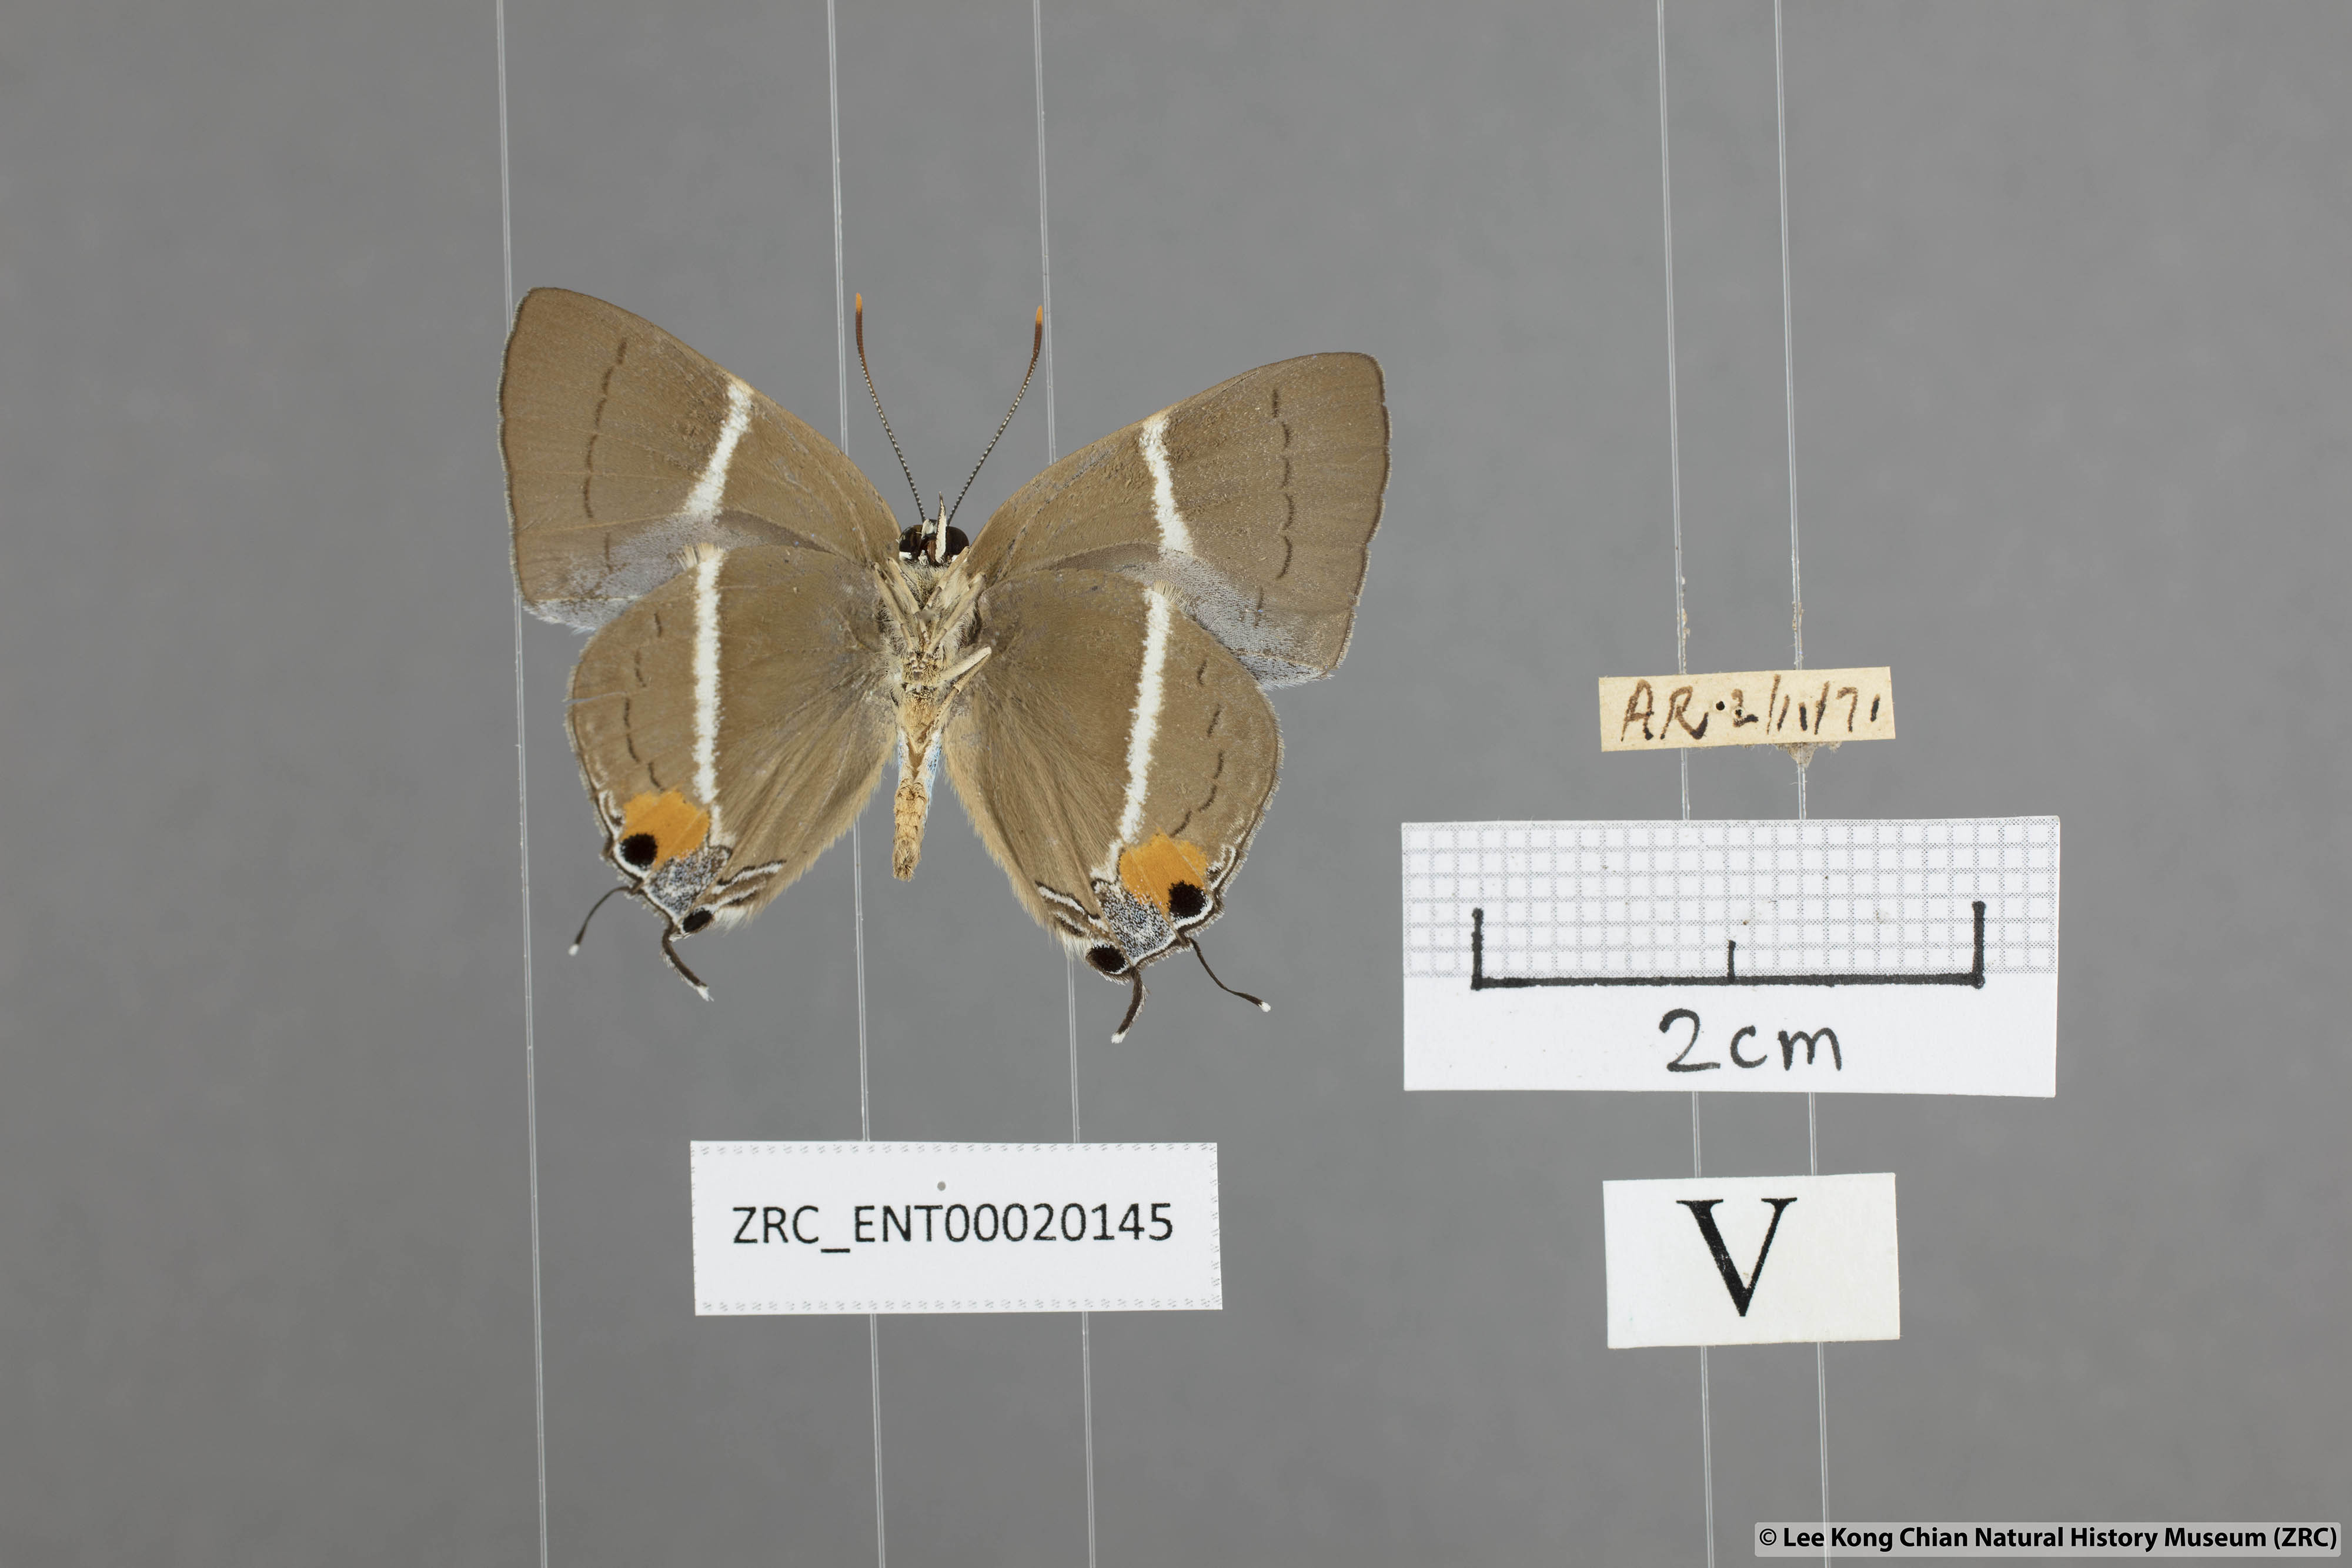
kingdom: Animalia
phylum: Arthropoda
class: Insecta
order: Lepidoptera
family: Lycaenidae
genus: Dacalana
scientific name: Dacalana sinhara
